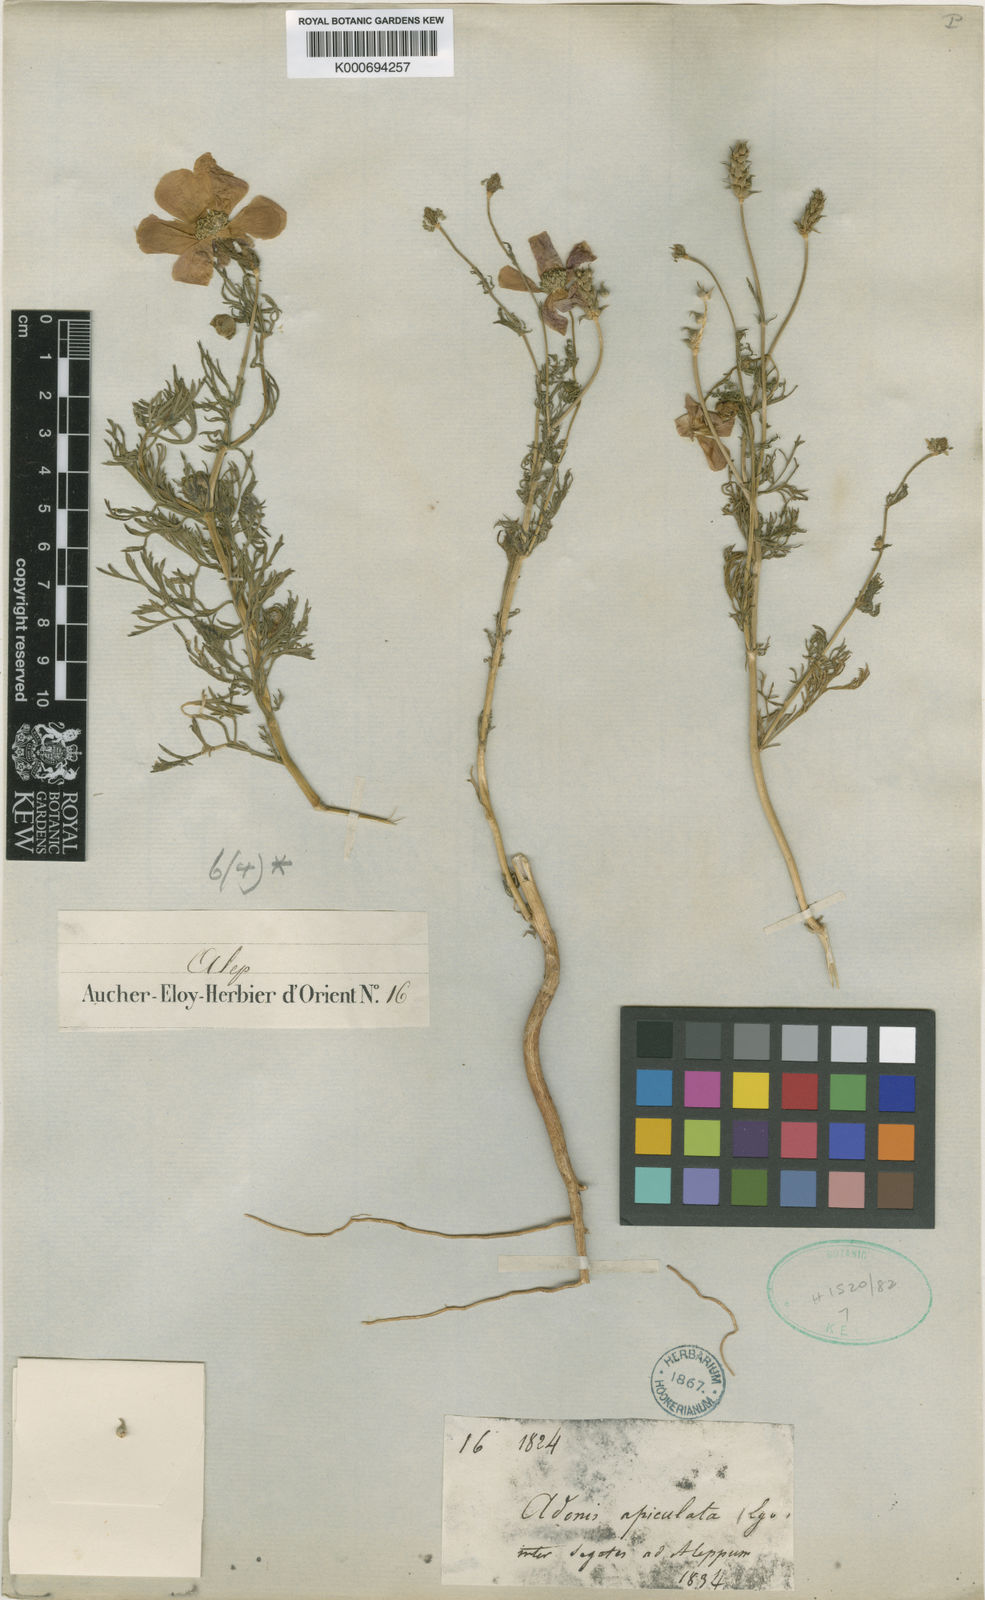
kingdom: Plantae
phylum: Tracheophyta
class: Magnoliopsida
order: Ranunculales
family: Ranunculaceae
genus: Adonis
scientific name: Adonis aleppica
